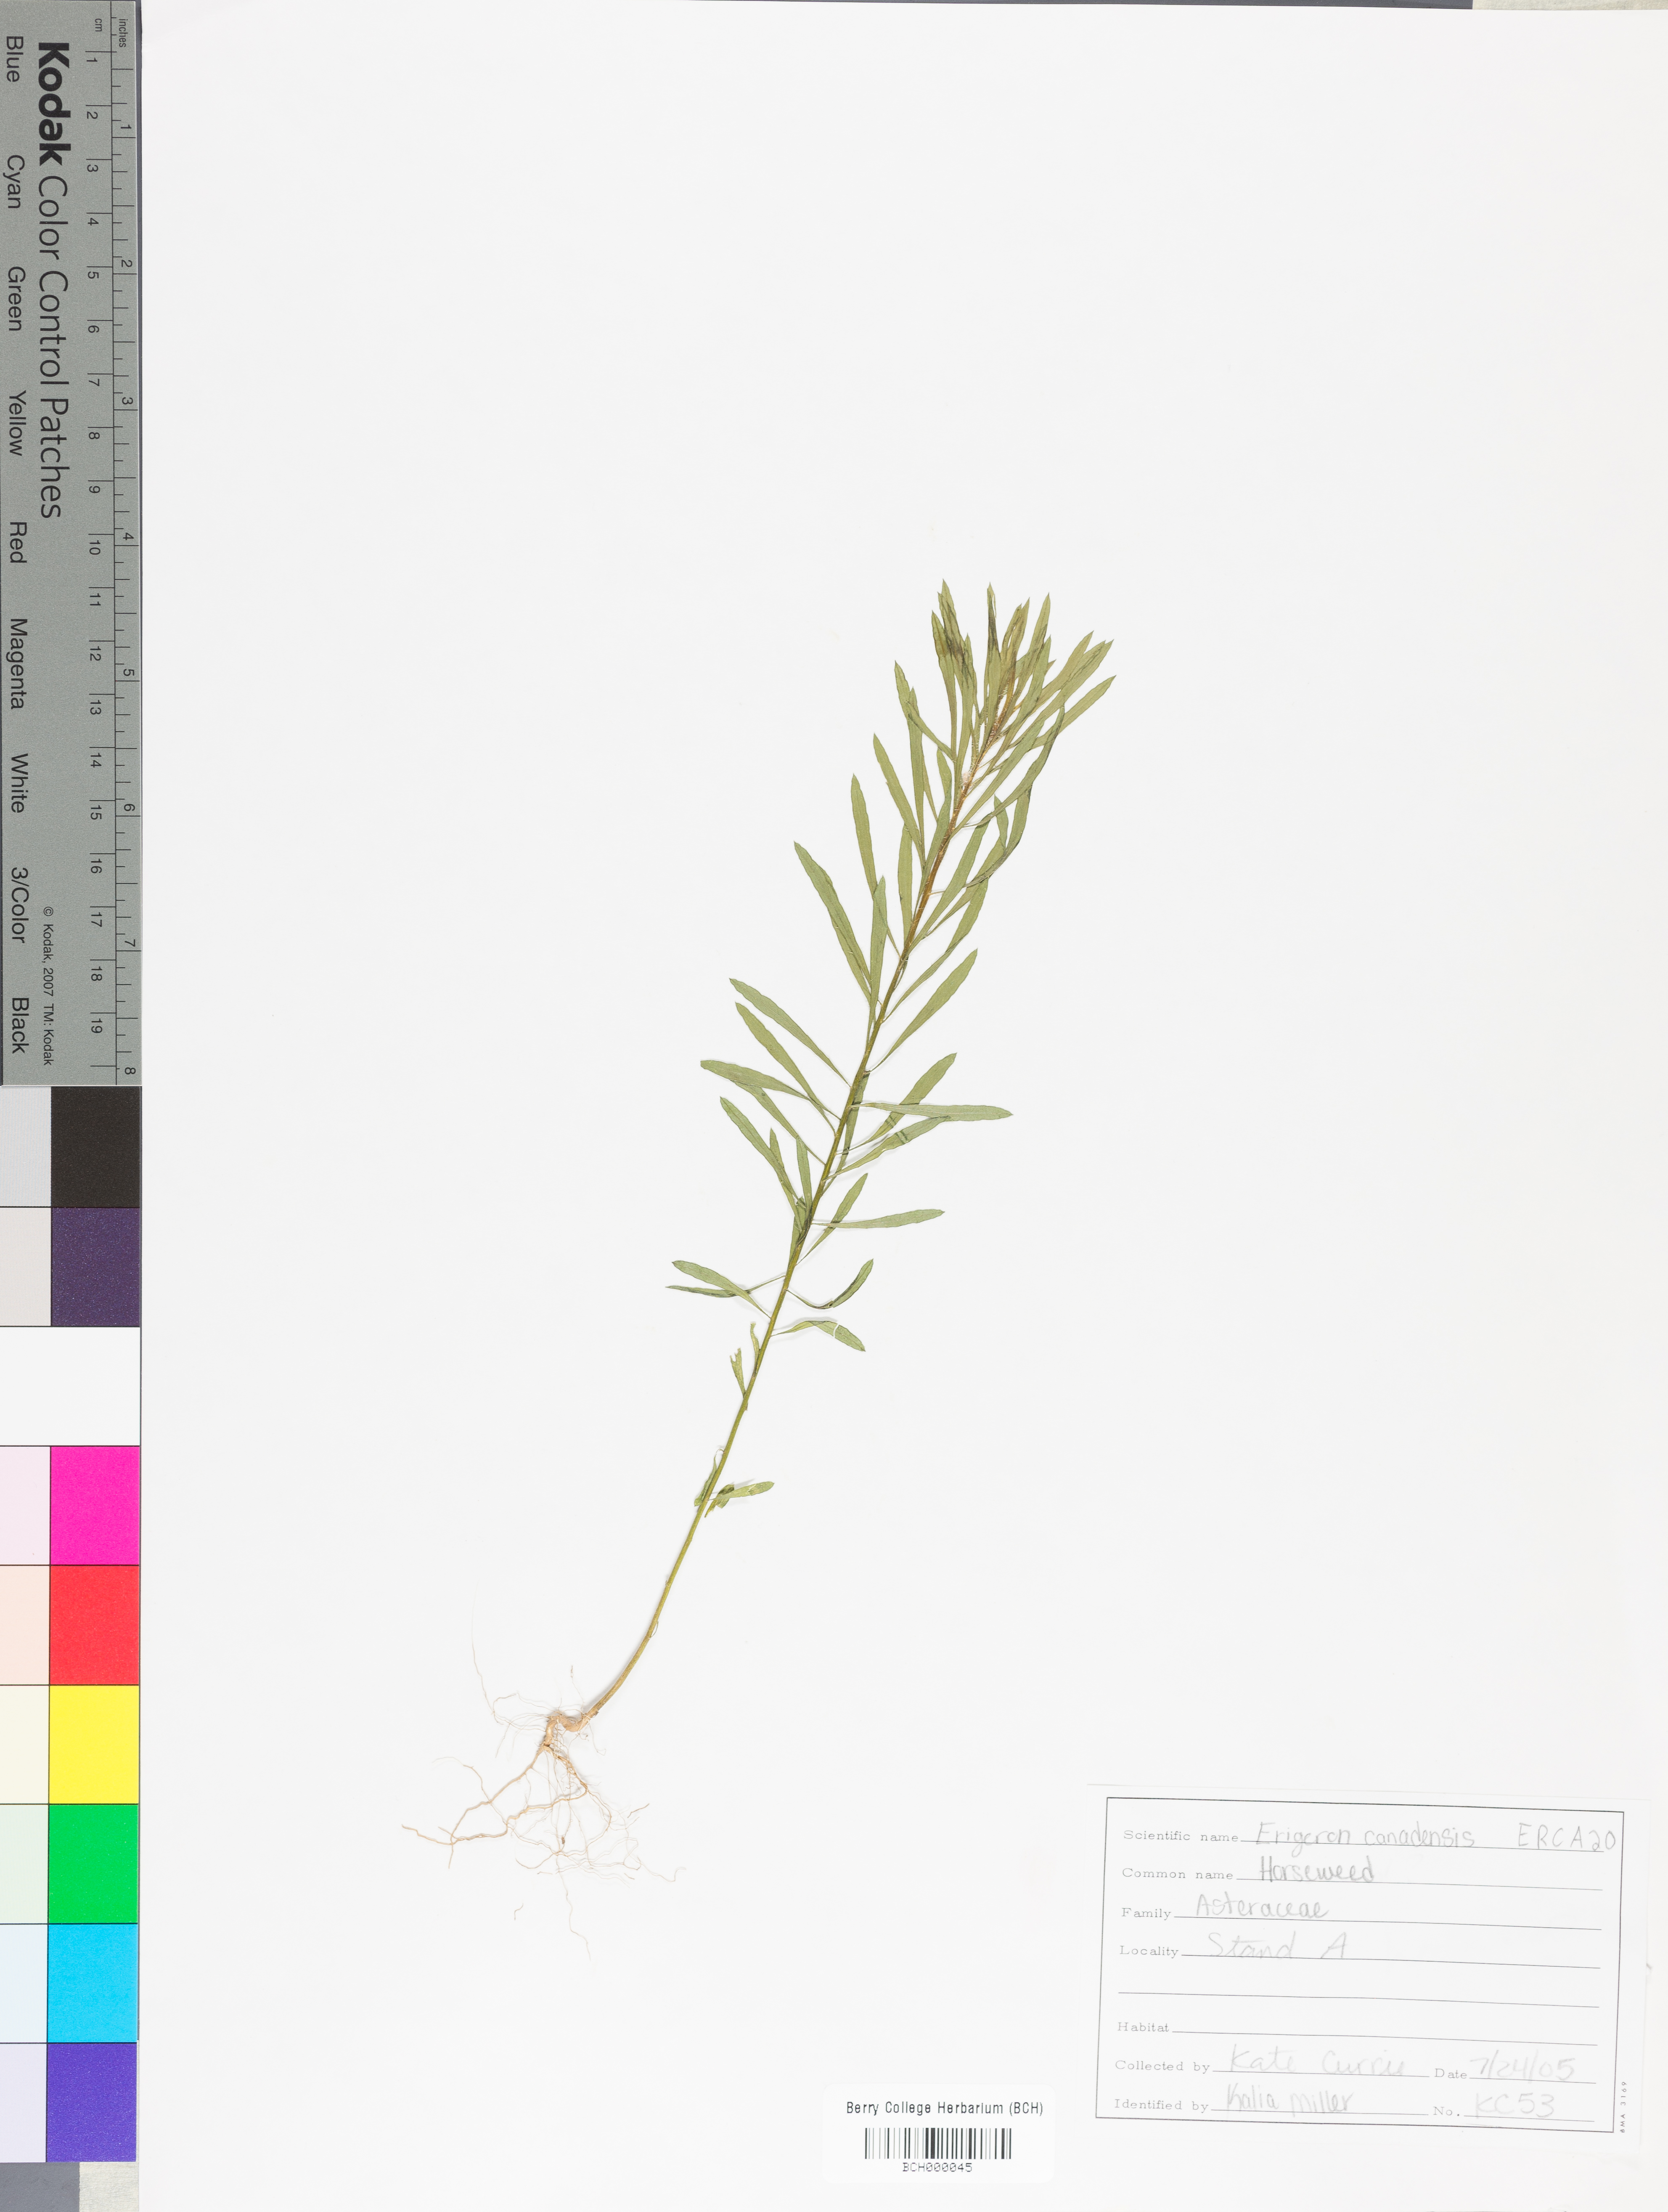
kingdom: Plantae
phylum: Tracheophyta
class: Magnoliopsida
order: Asterales
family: Asteraceae
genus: Erigeron
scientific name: Erigeron canadensis
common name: Canadian fleabane
